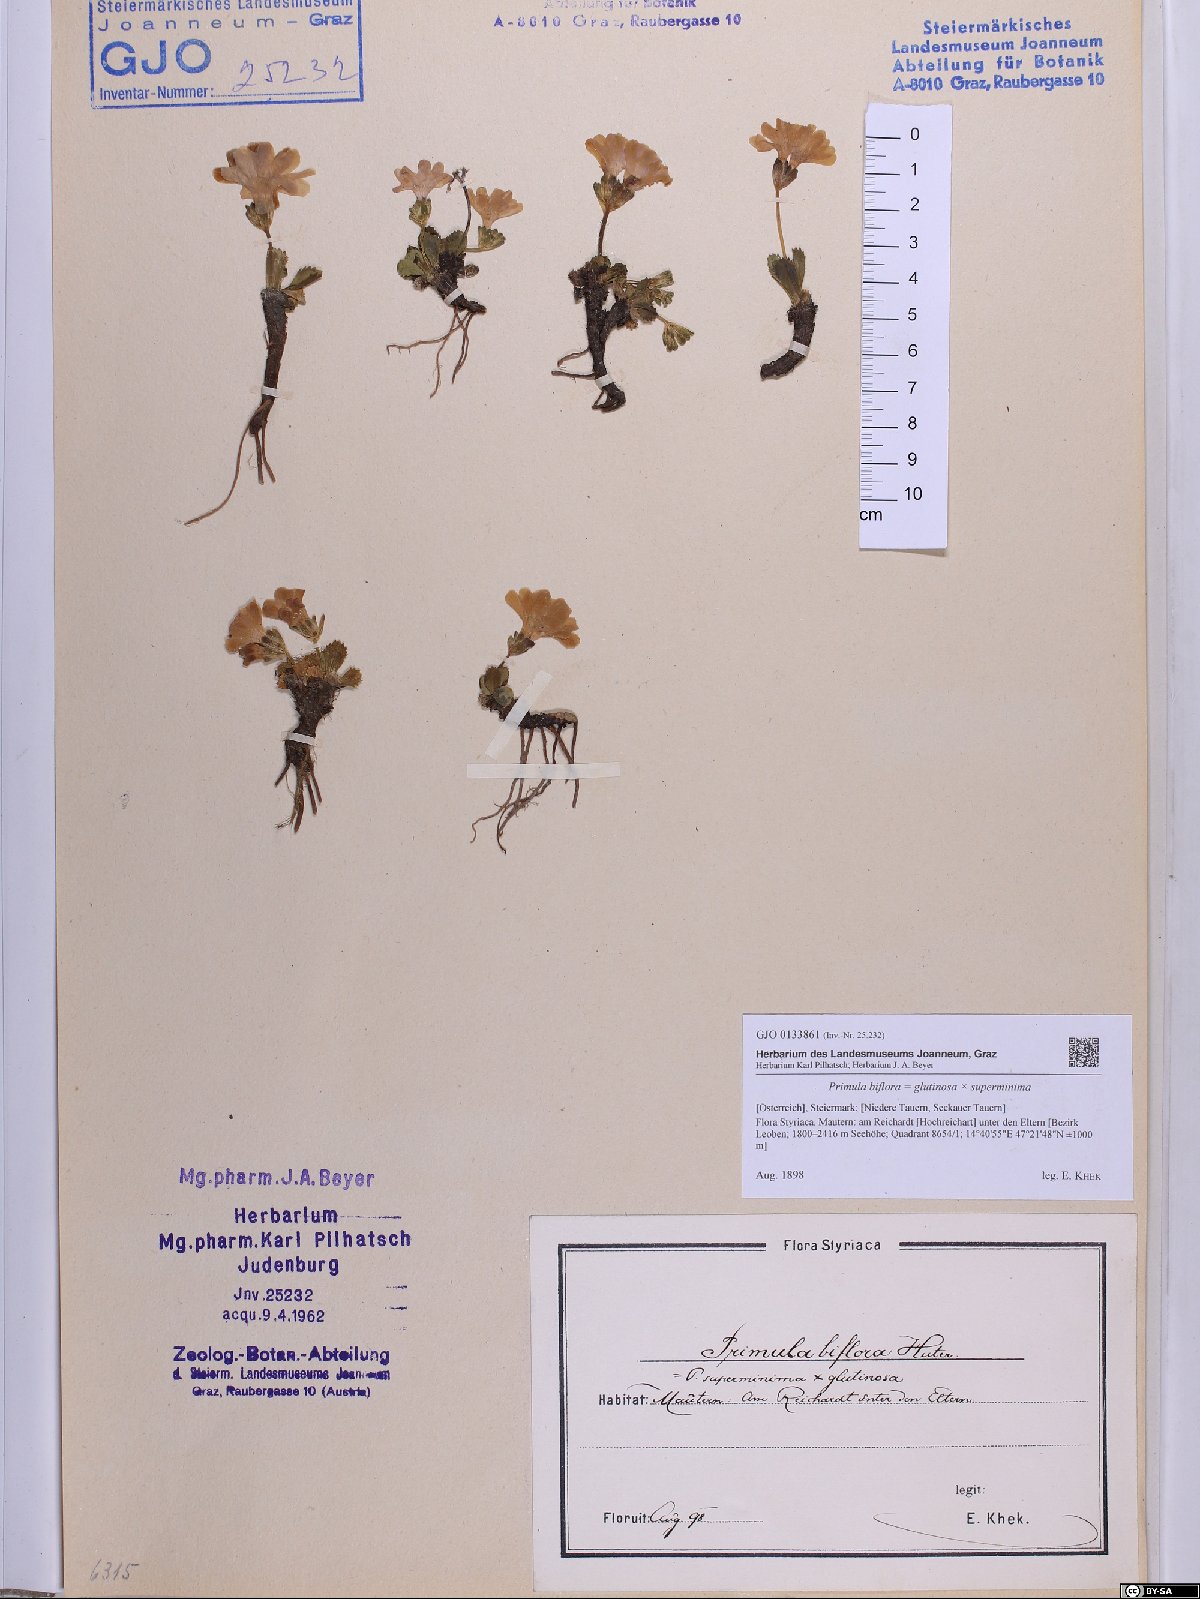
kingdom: Plantae
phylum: Tracheophyta
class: Magnoliopsida
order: Ericales
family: Primulaceae
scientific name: Primulaceae
